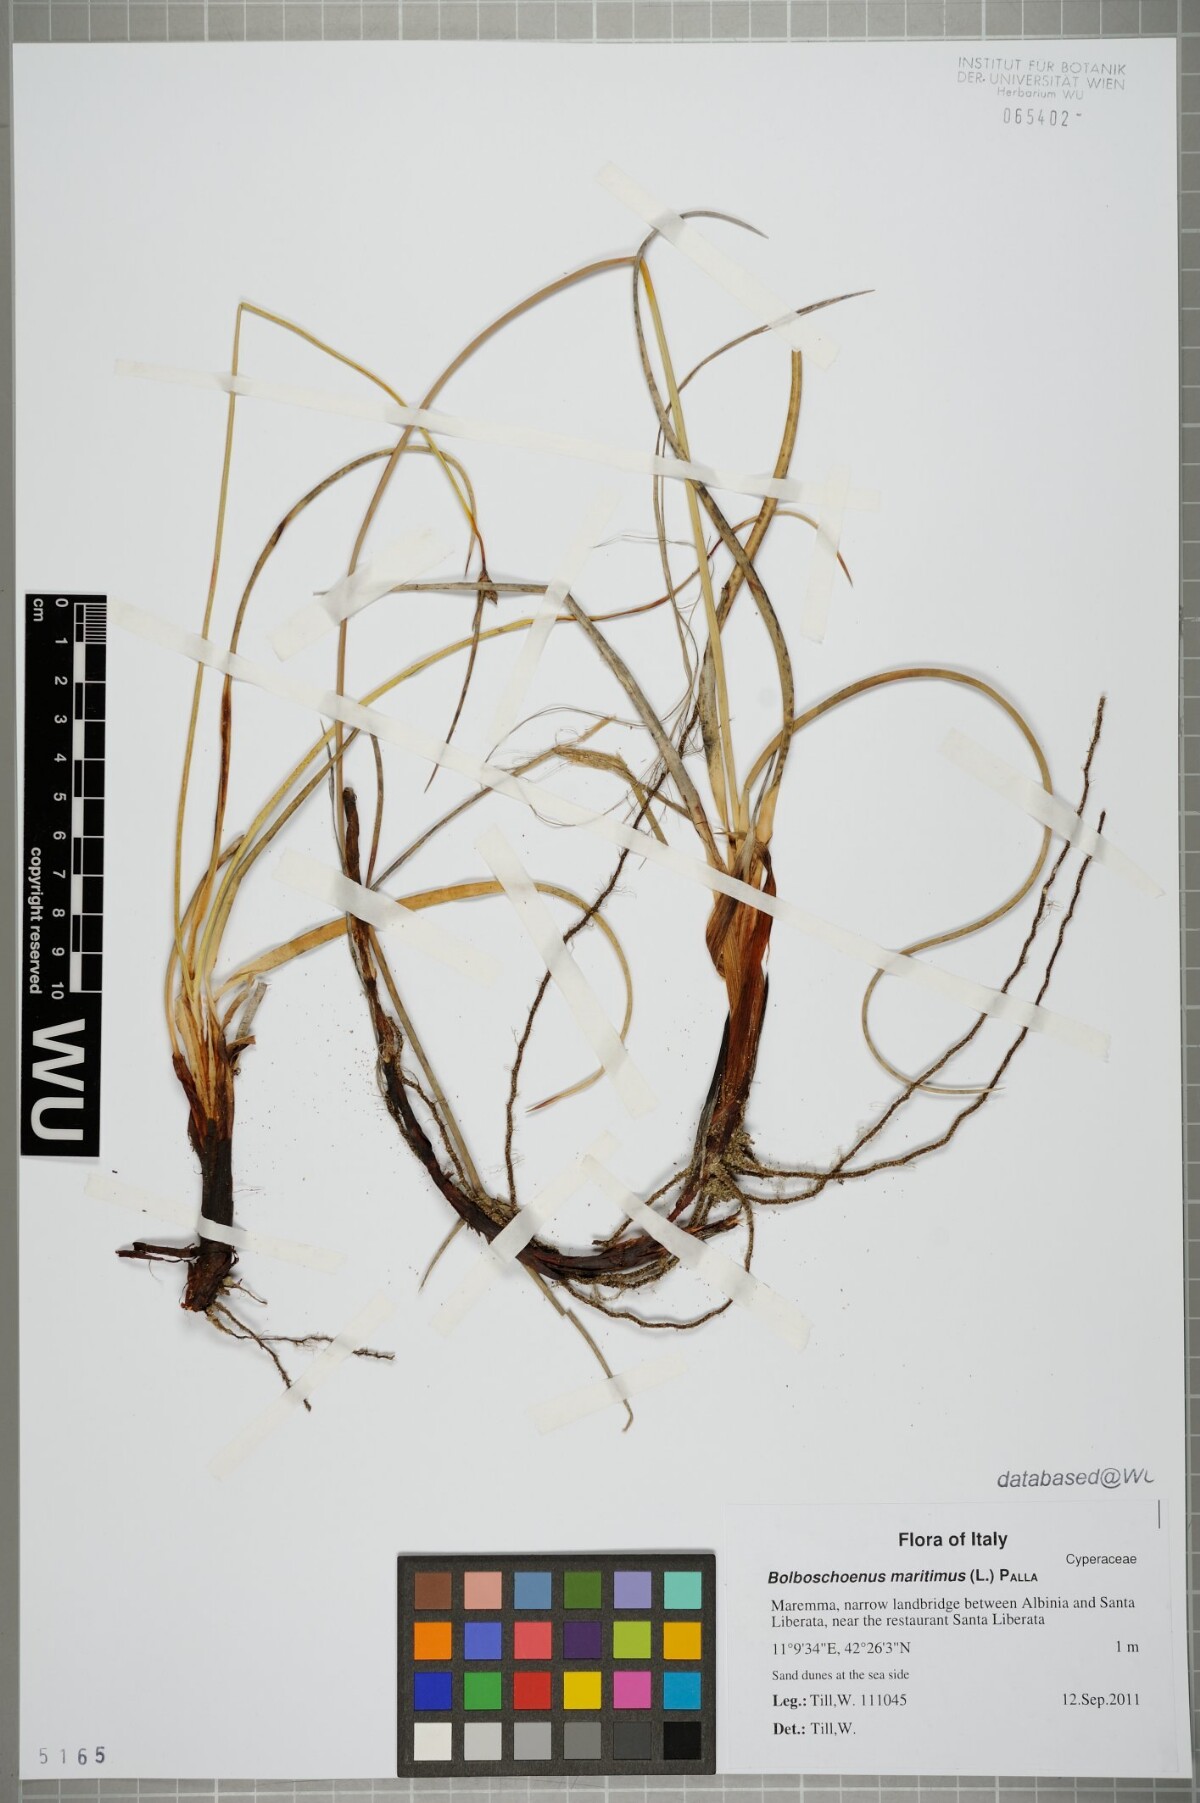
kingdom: Plantae
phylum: Tracheophyta
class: Liliopsida
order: Poales
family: Cyperaceae
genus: Bolboschoenus
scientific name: Bolboschoenus maritimus
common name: Sea club-rush
